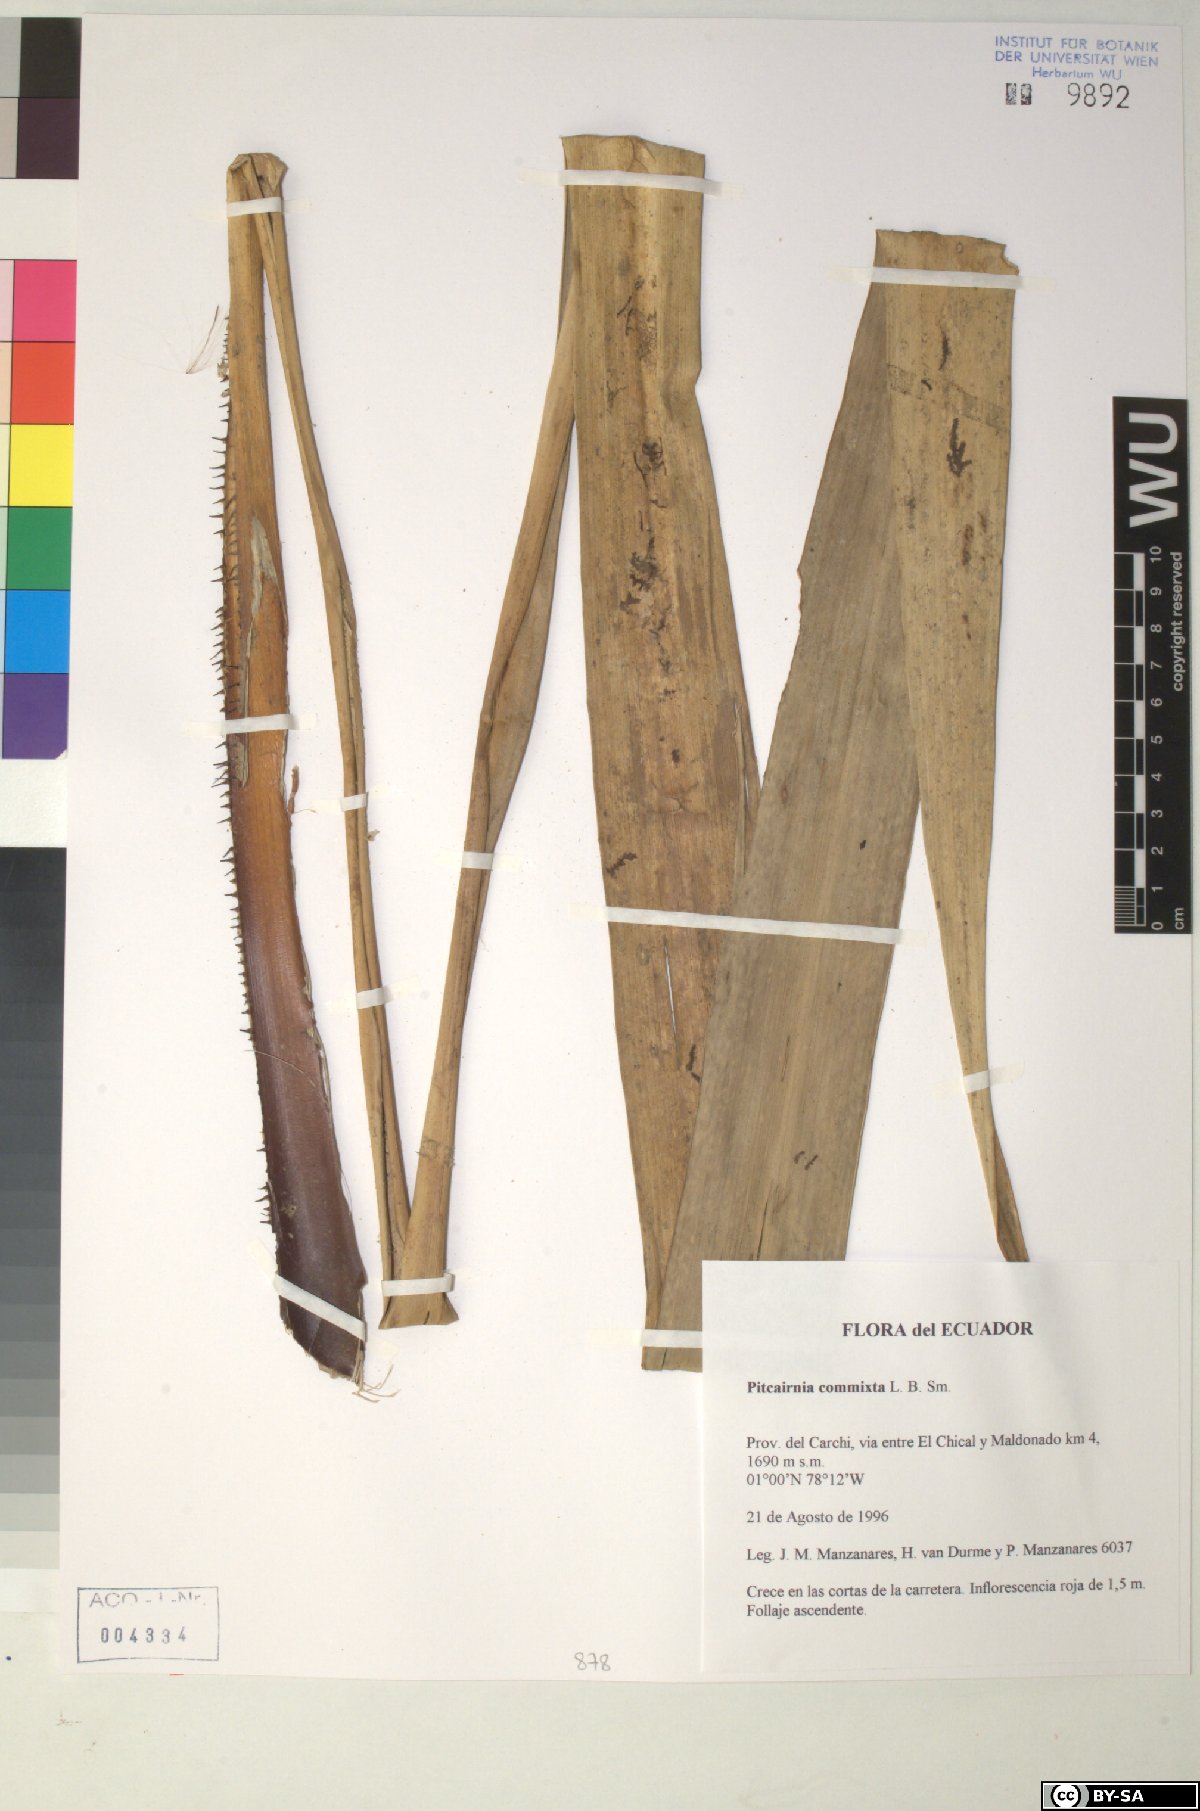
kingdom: Plantae
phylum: Tracheophyta
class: Liliopsida
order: Poales
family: Bromeliaceae
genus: Pitcairnia
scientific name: Pitcairnia commixta
